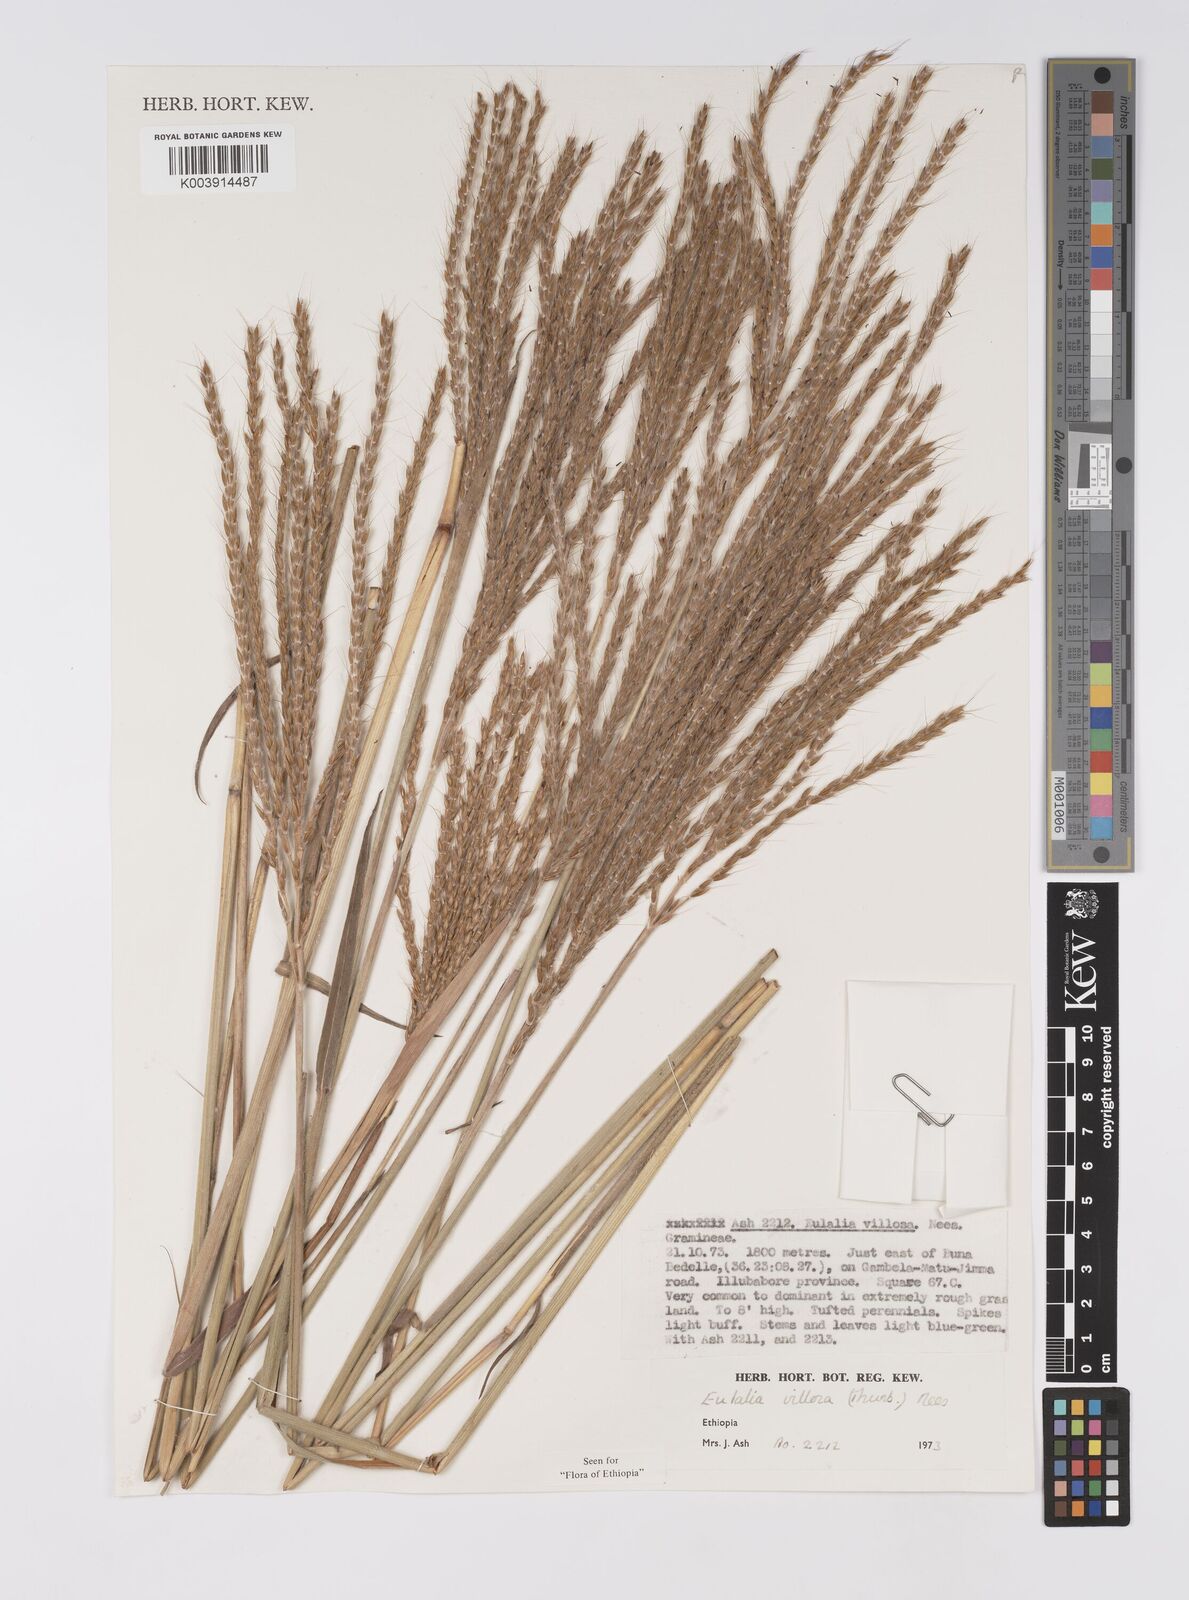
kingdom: Plantae
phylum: Tracheophyta
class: Liliopsida
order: Poales
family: Poaceae
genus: Eulalia
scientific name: Eulalia villosa
